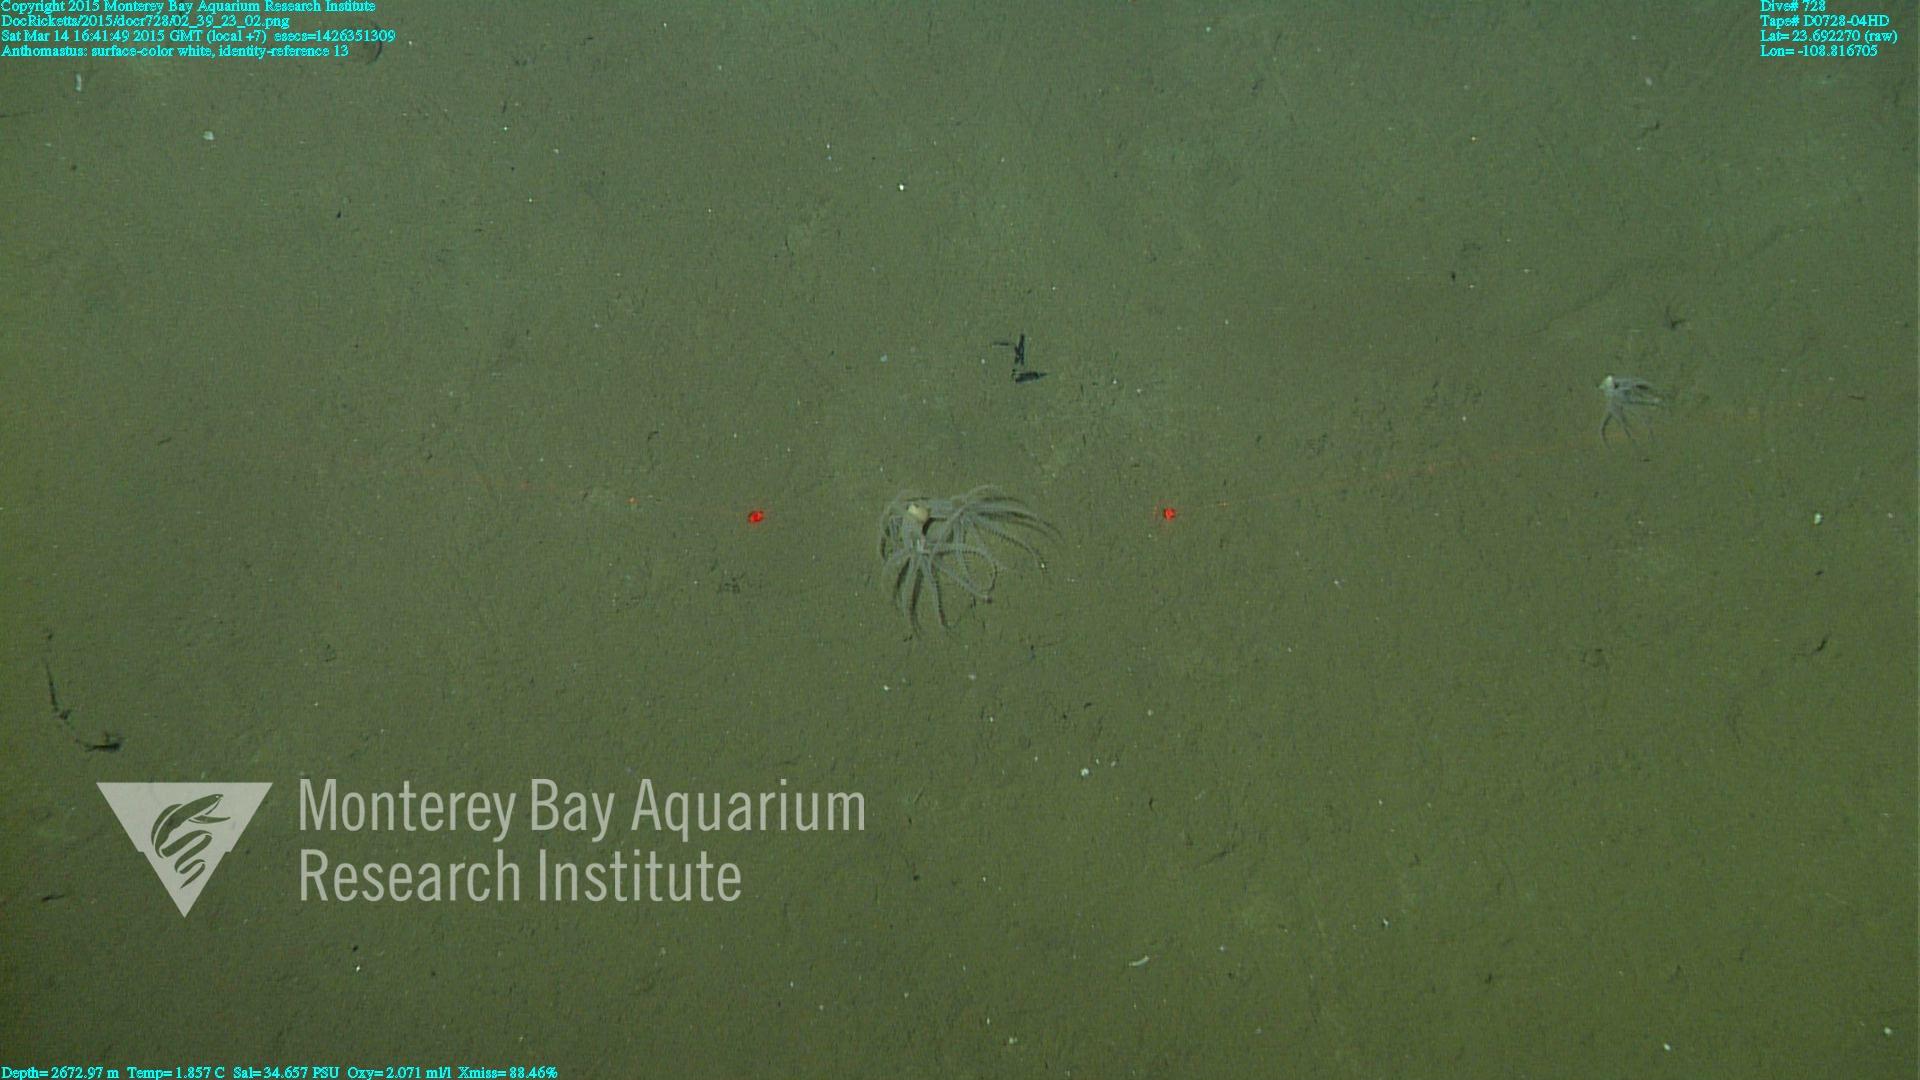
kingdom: Animalia
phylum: Cnidaria
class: Anthozoa
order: Scleralcyonacea
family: Coralliidae
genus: Bathyalcyon
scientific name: Bathyalcyon robustum
